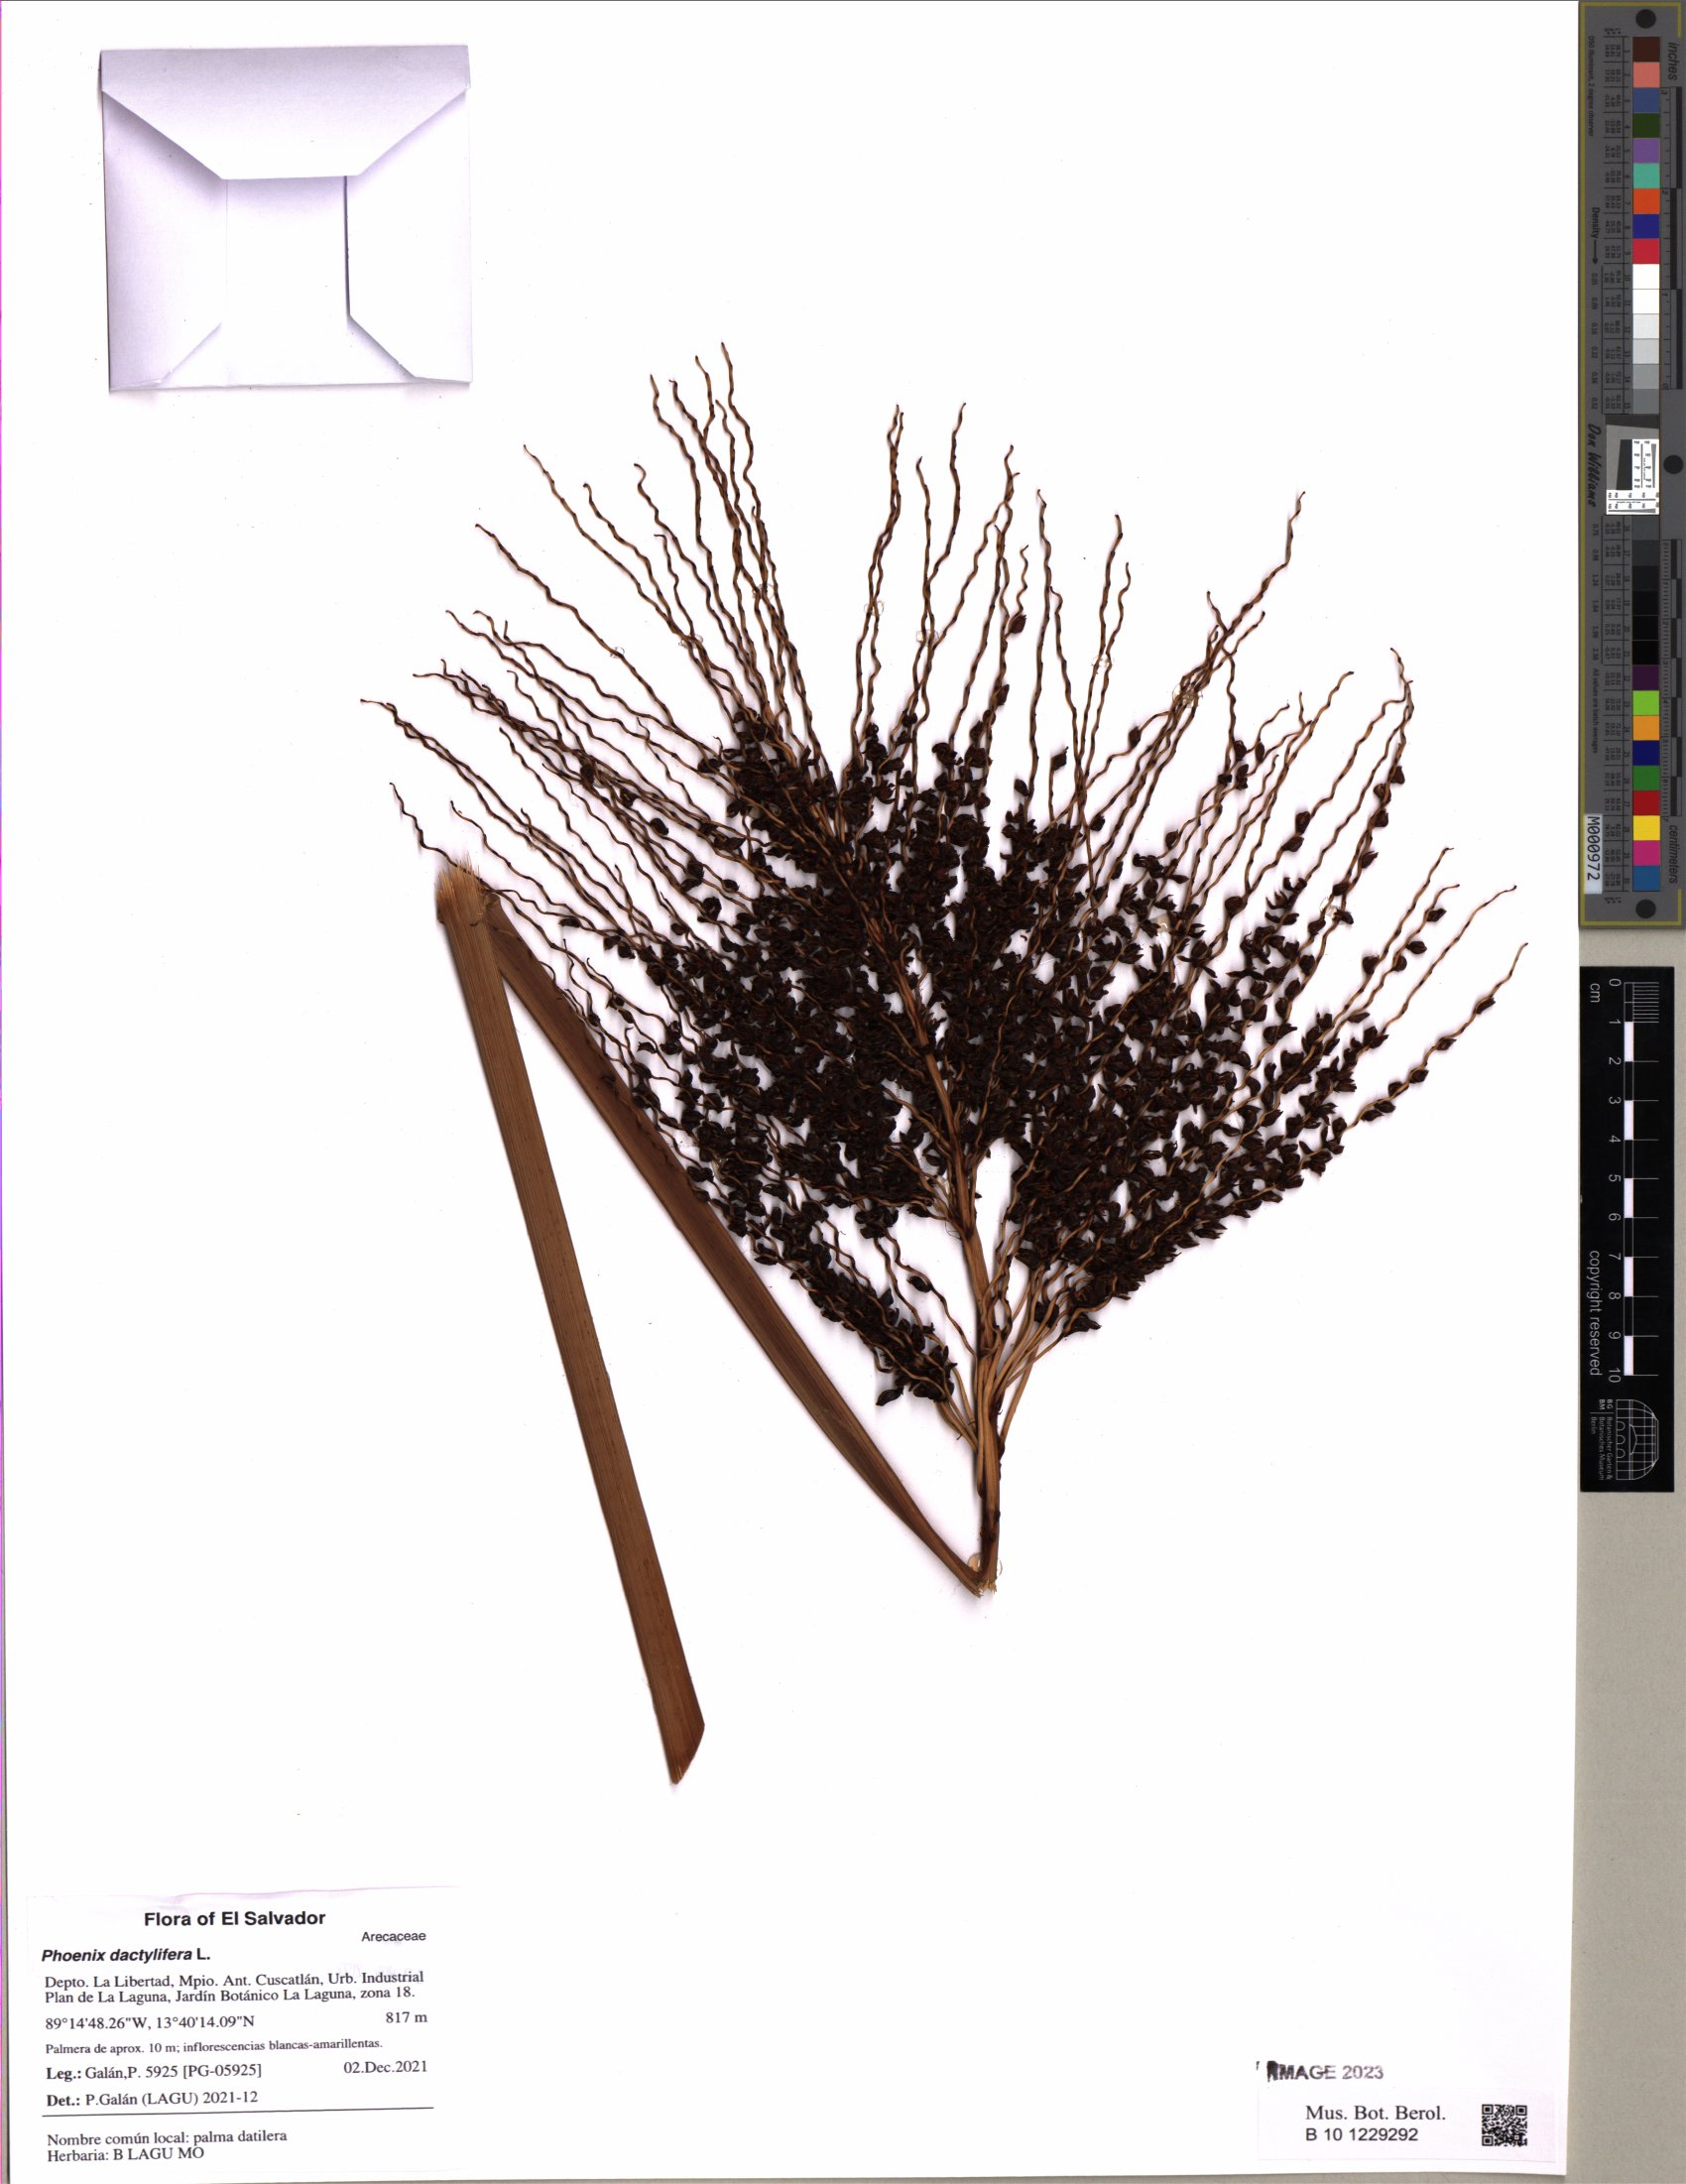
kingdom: Plantae
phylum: Tracheophyta
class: Liliopsida
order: Arecales
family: Arecaceae
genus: Phoenix
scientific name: Phoenix reclinata
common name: Senegal date palm
